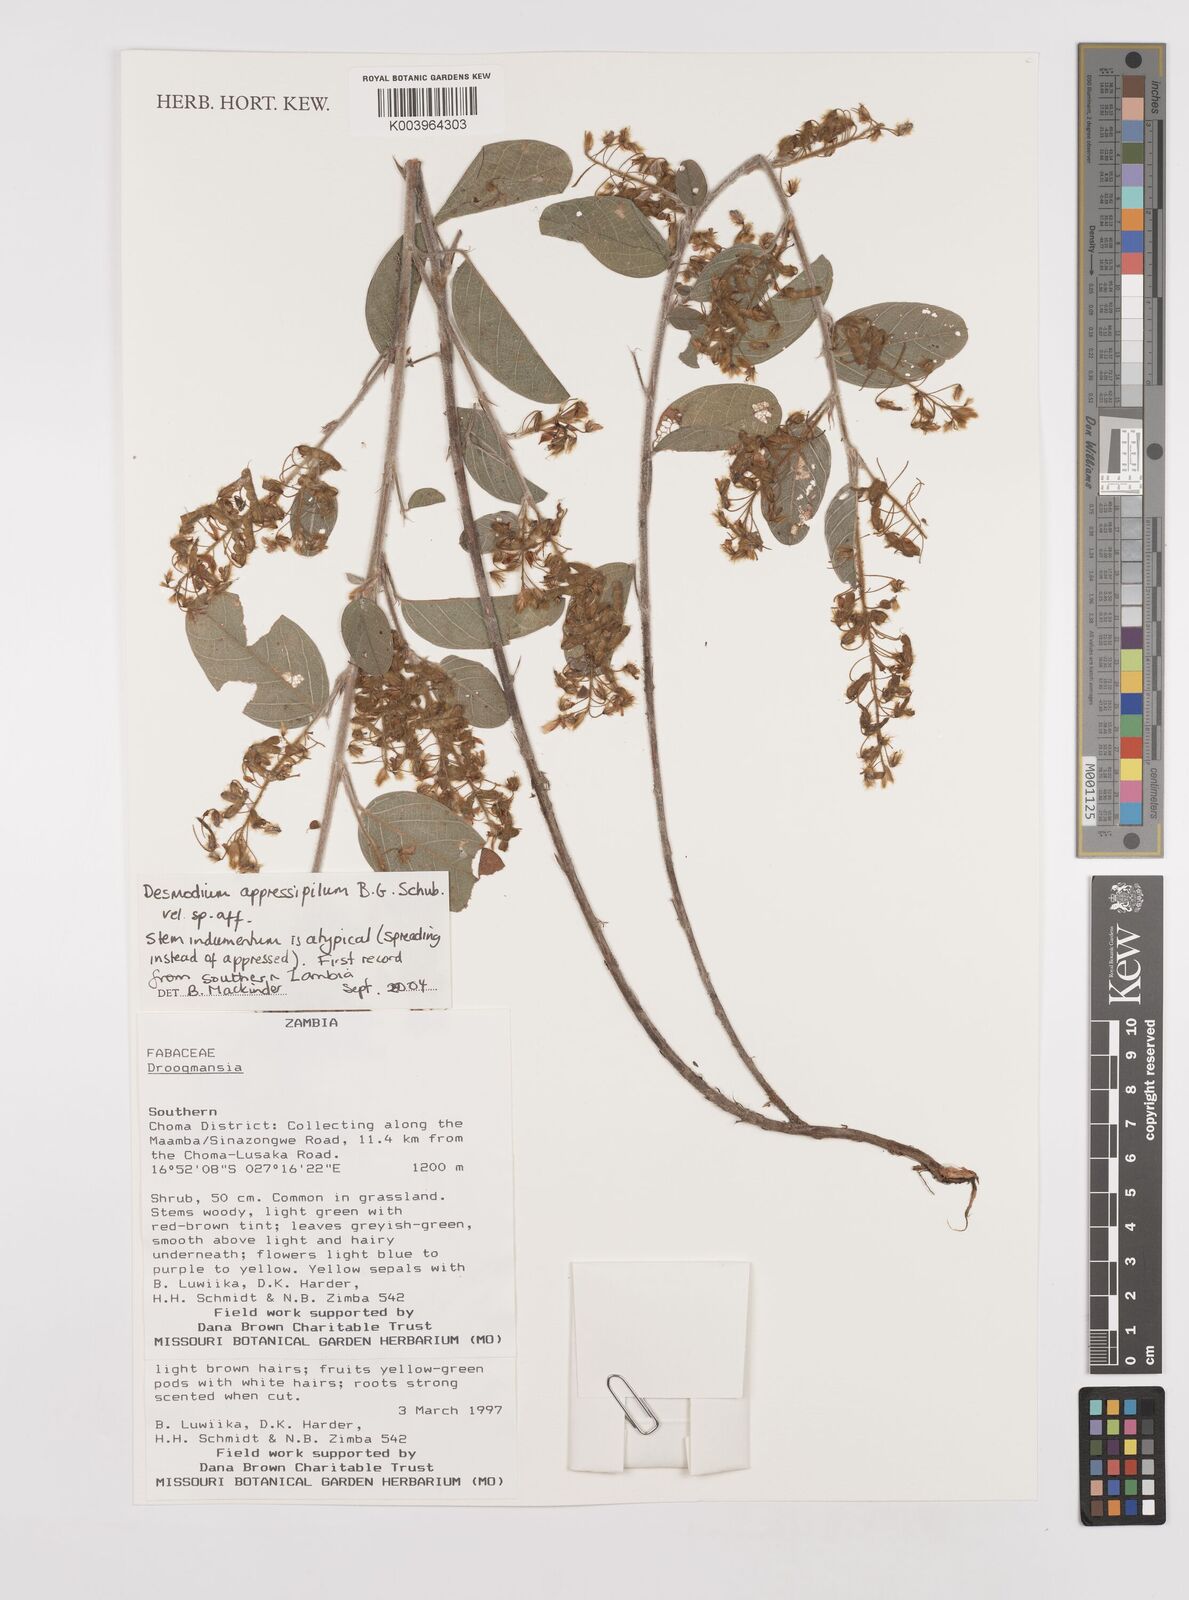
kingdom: Plantae
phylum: Tracheophyta
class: Magnoliopsida
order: Fabales
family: Fabaceae
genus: Grona
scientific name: Grona appressipila
